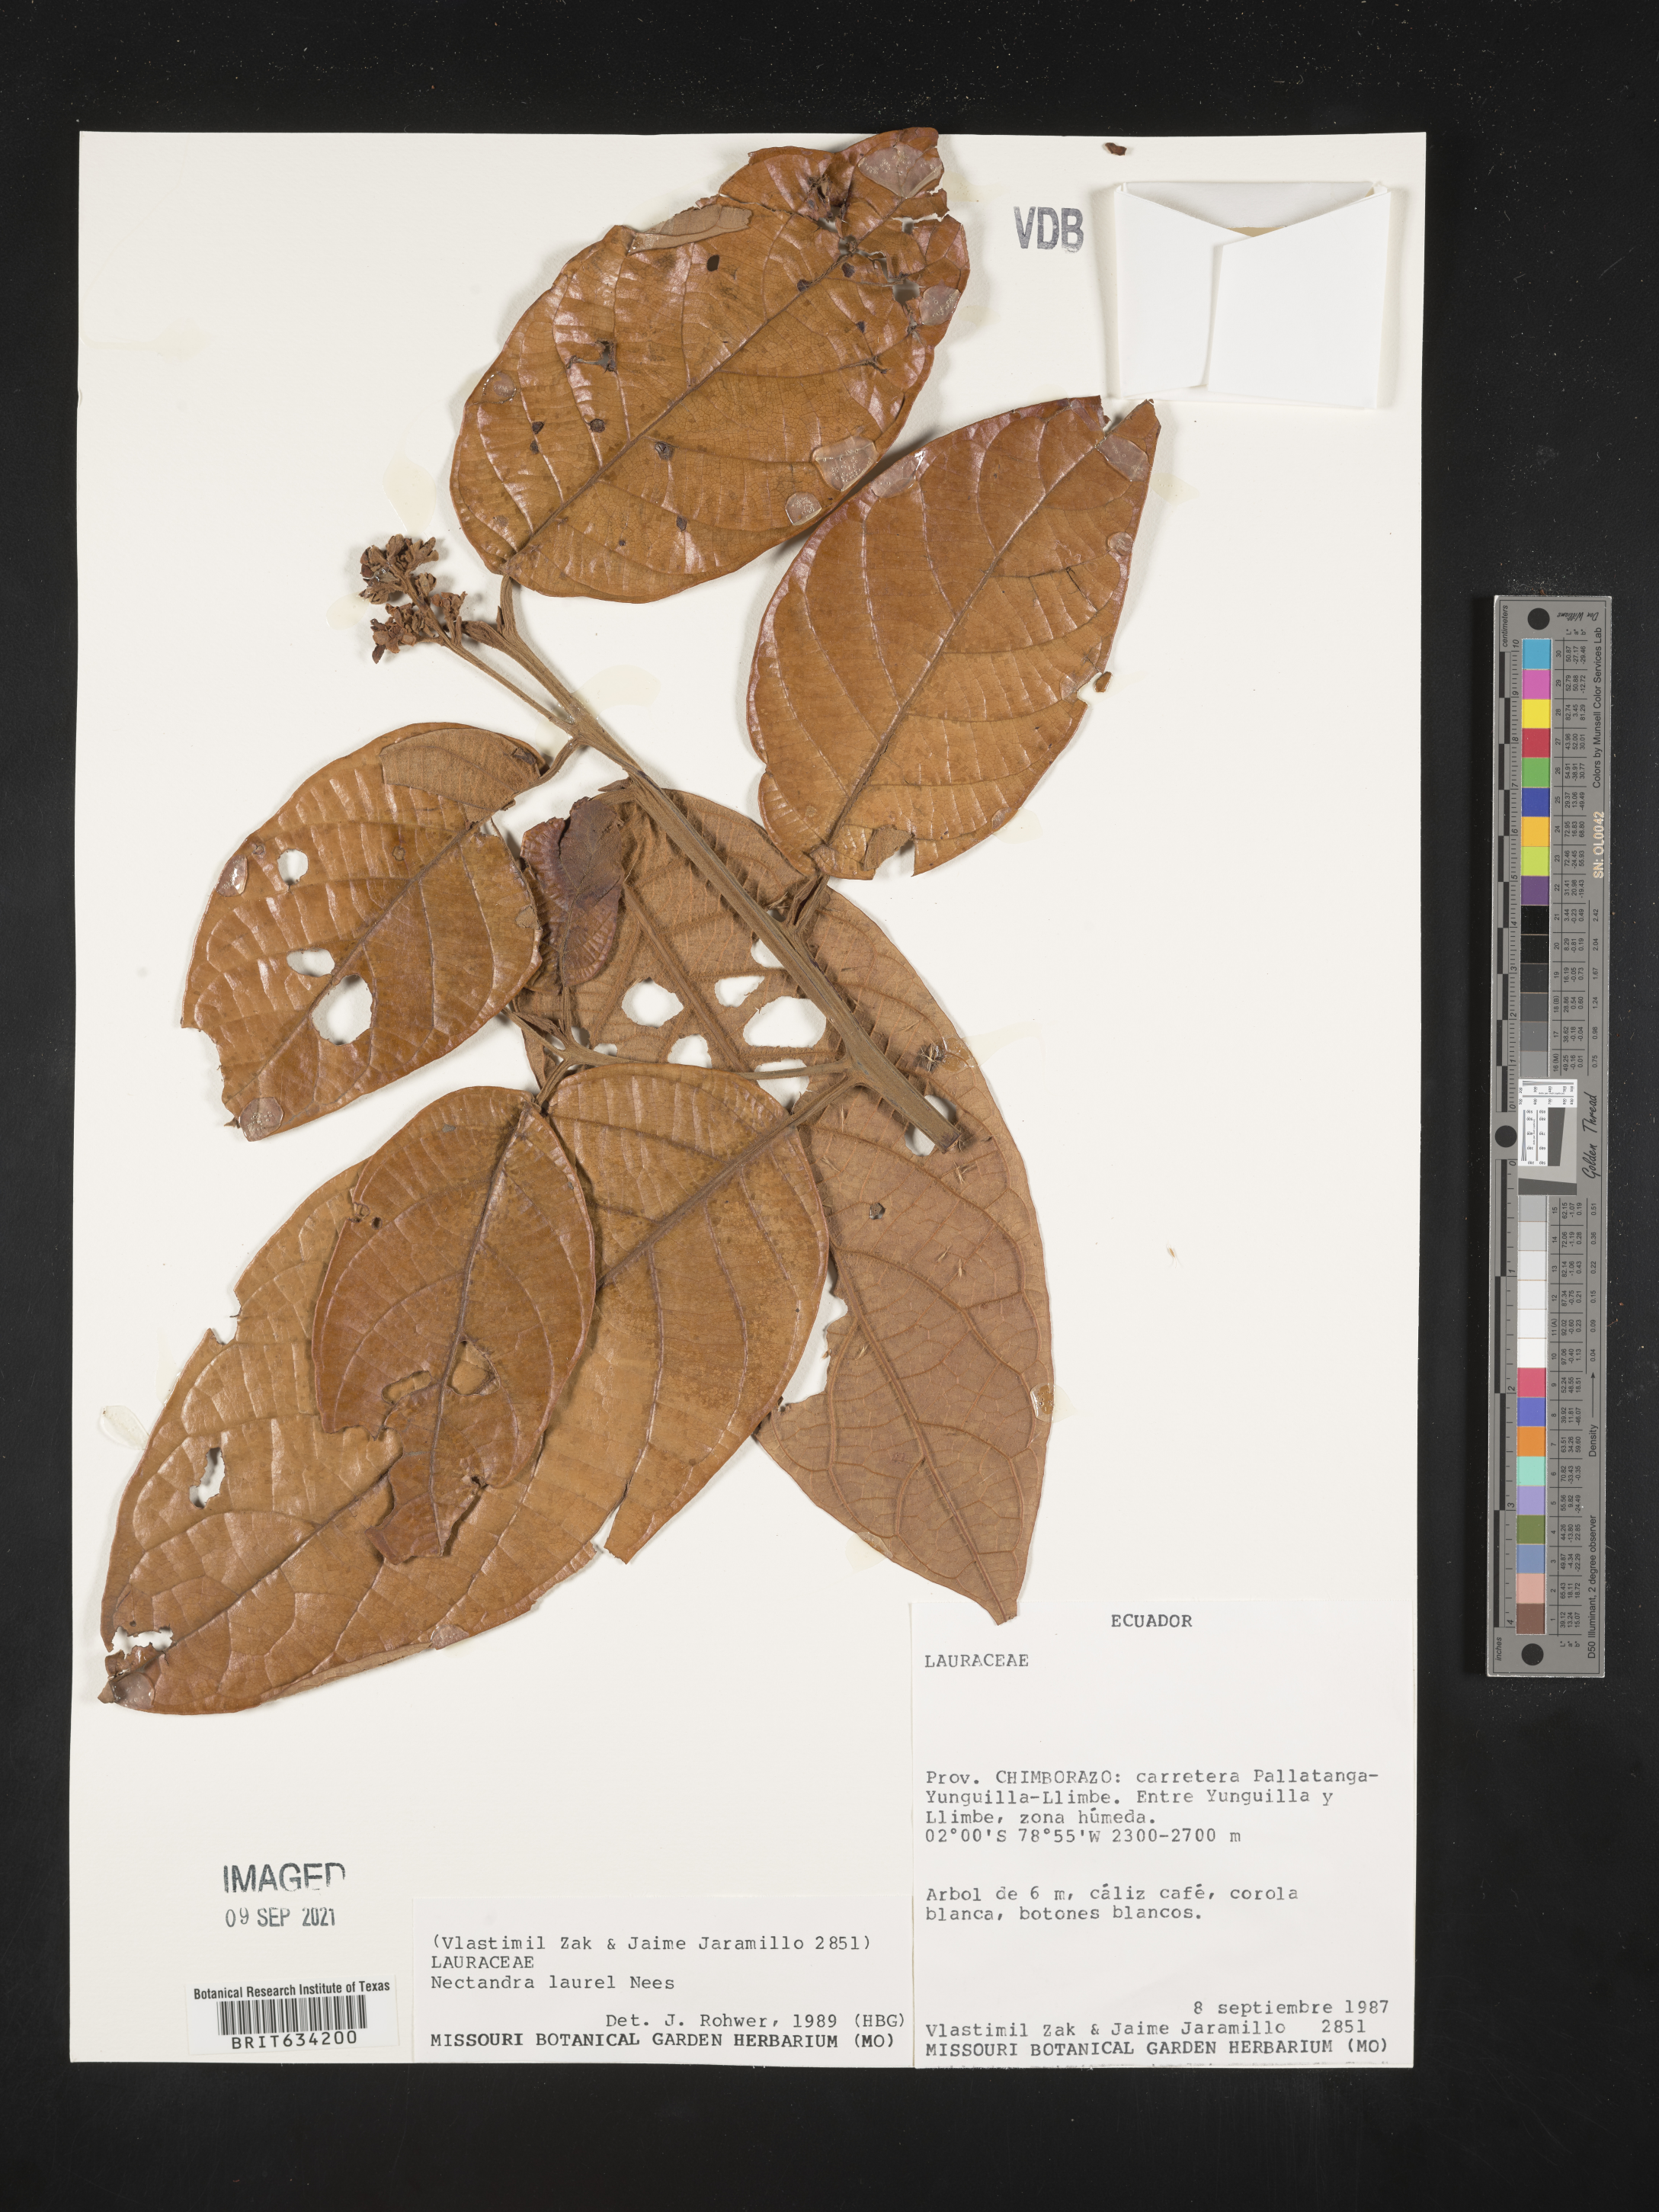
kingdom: Plantae
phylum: Tracheophyta
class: Magnoliopsida
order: Laurales
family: Lauraceae
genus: Nectandra
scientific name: Nectandra
